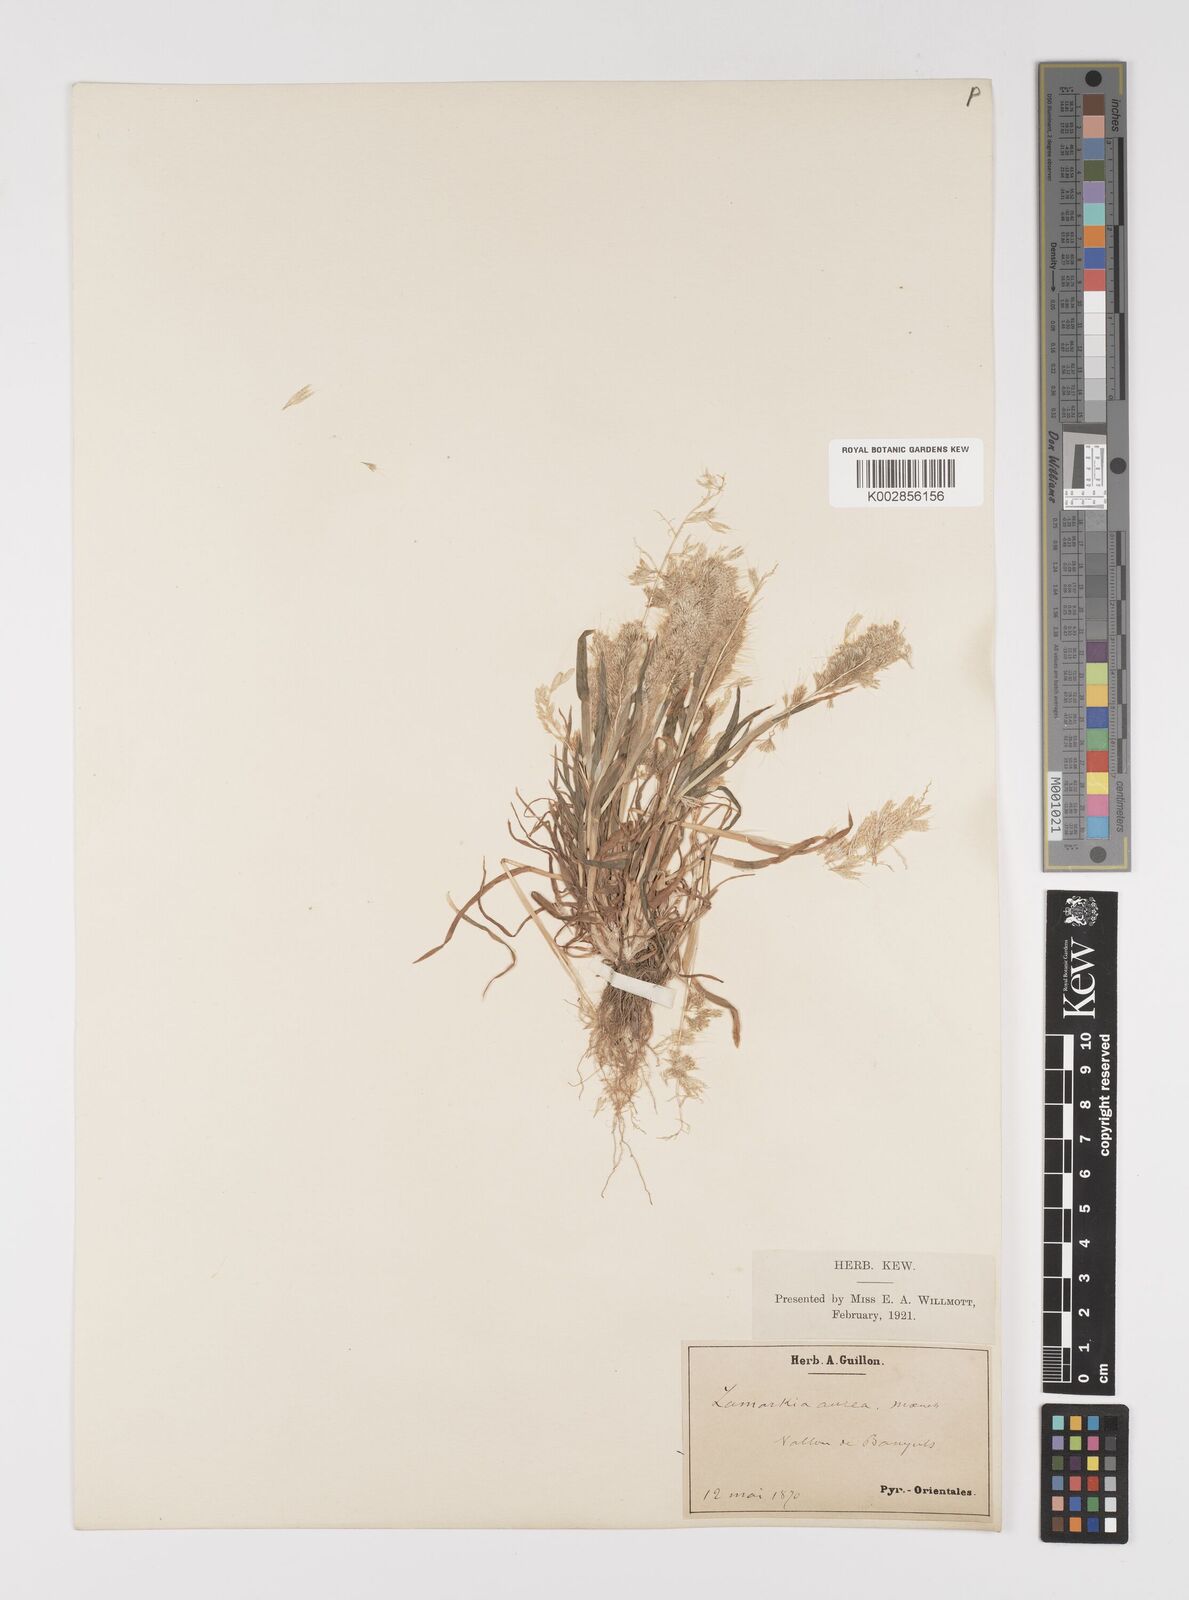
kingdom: Plantae
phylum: Tracheophyta
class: Liliopsida
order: Poales
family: Poaceae
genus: Lamarckia
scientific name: Lamarckia aurea
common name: Golden dog's-tail
